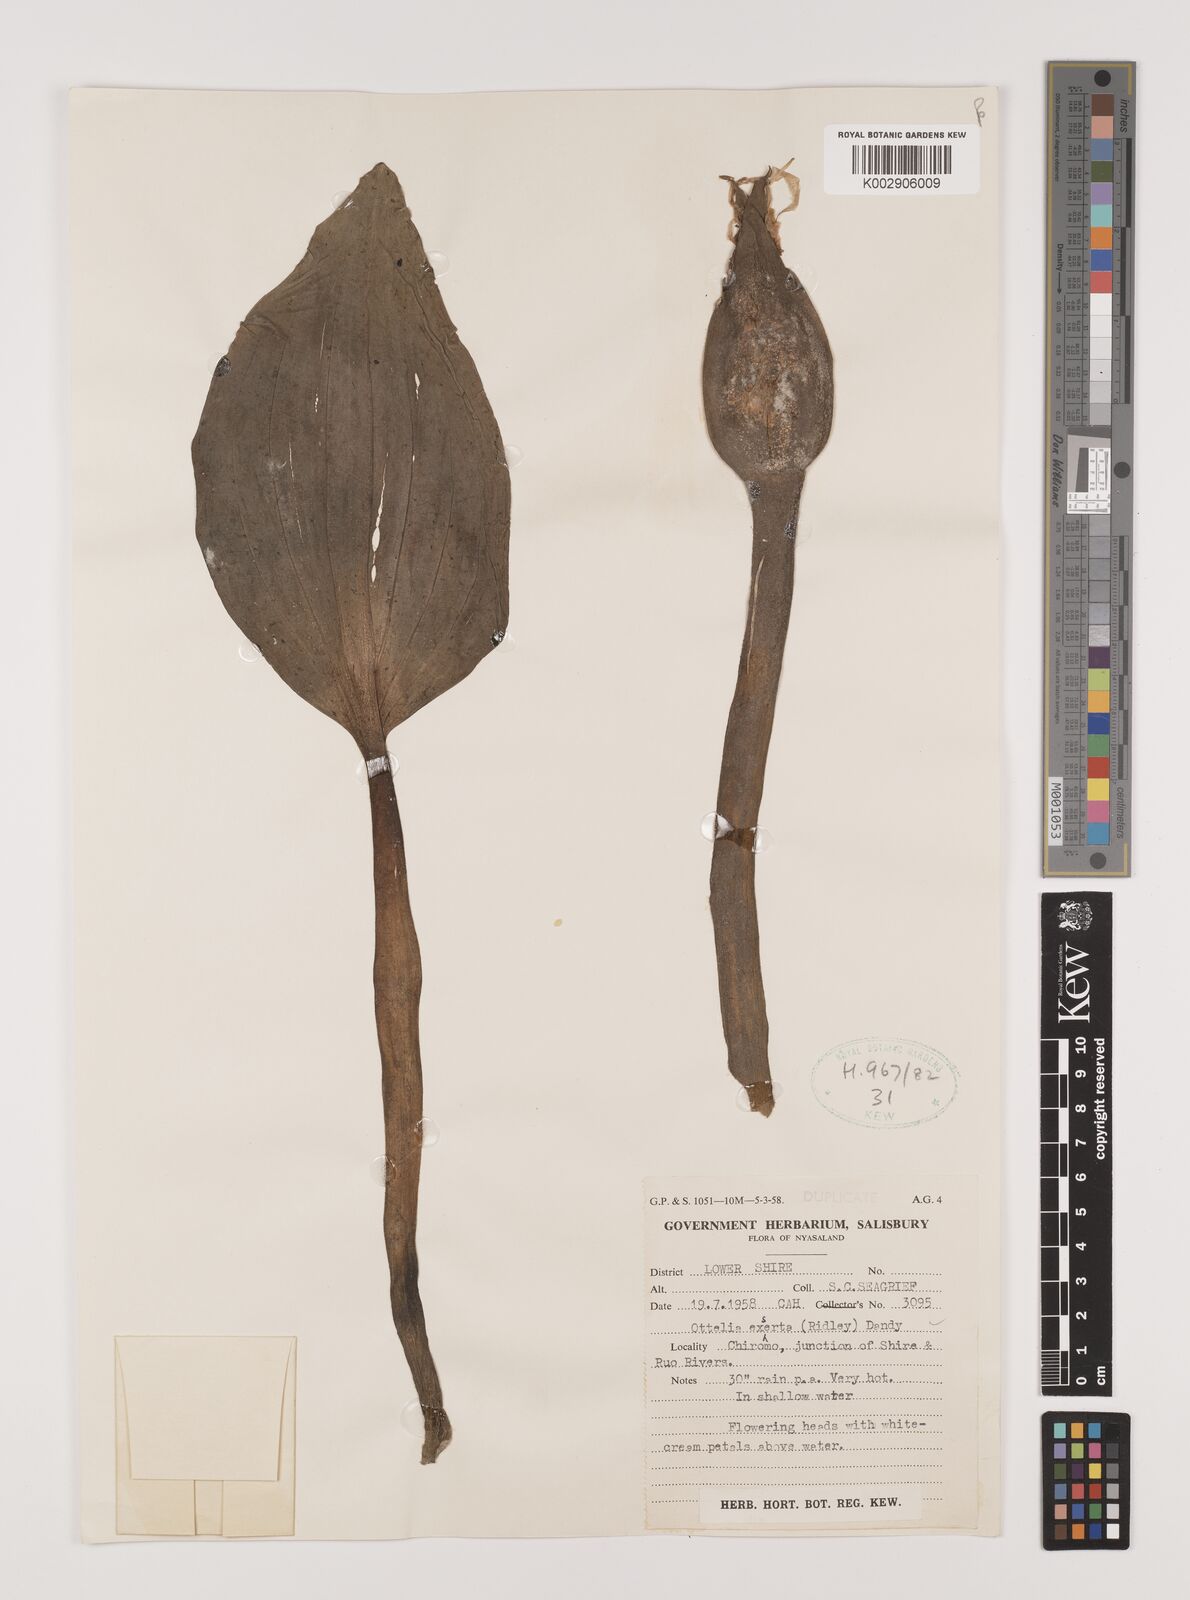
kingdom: Plantae
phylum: Tracheophyta
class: Liliopsida
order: Alismatales
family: Hydrocharitaceae
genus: Ottelia
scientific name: Ottelia exserta
